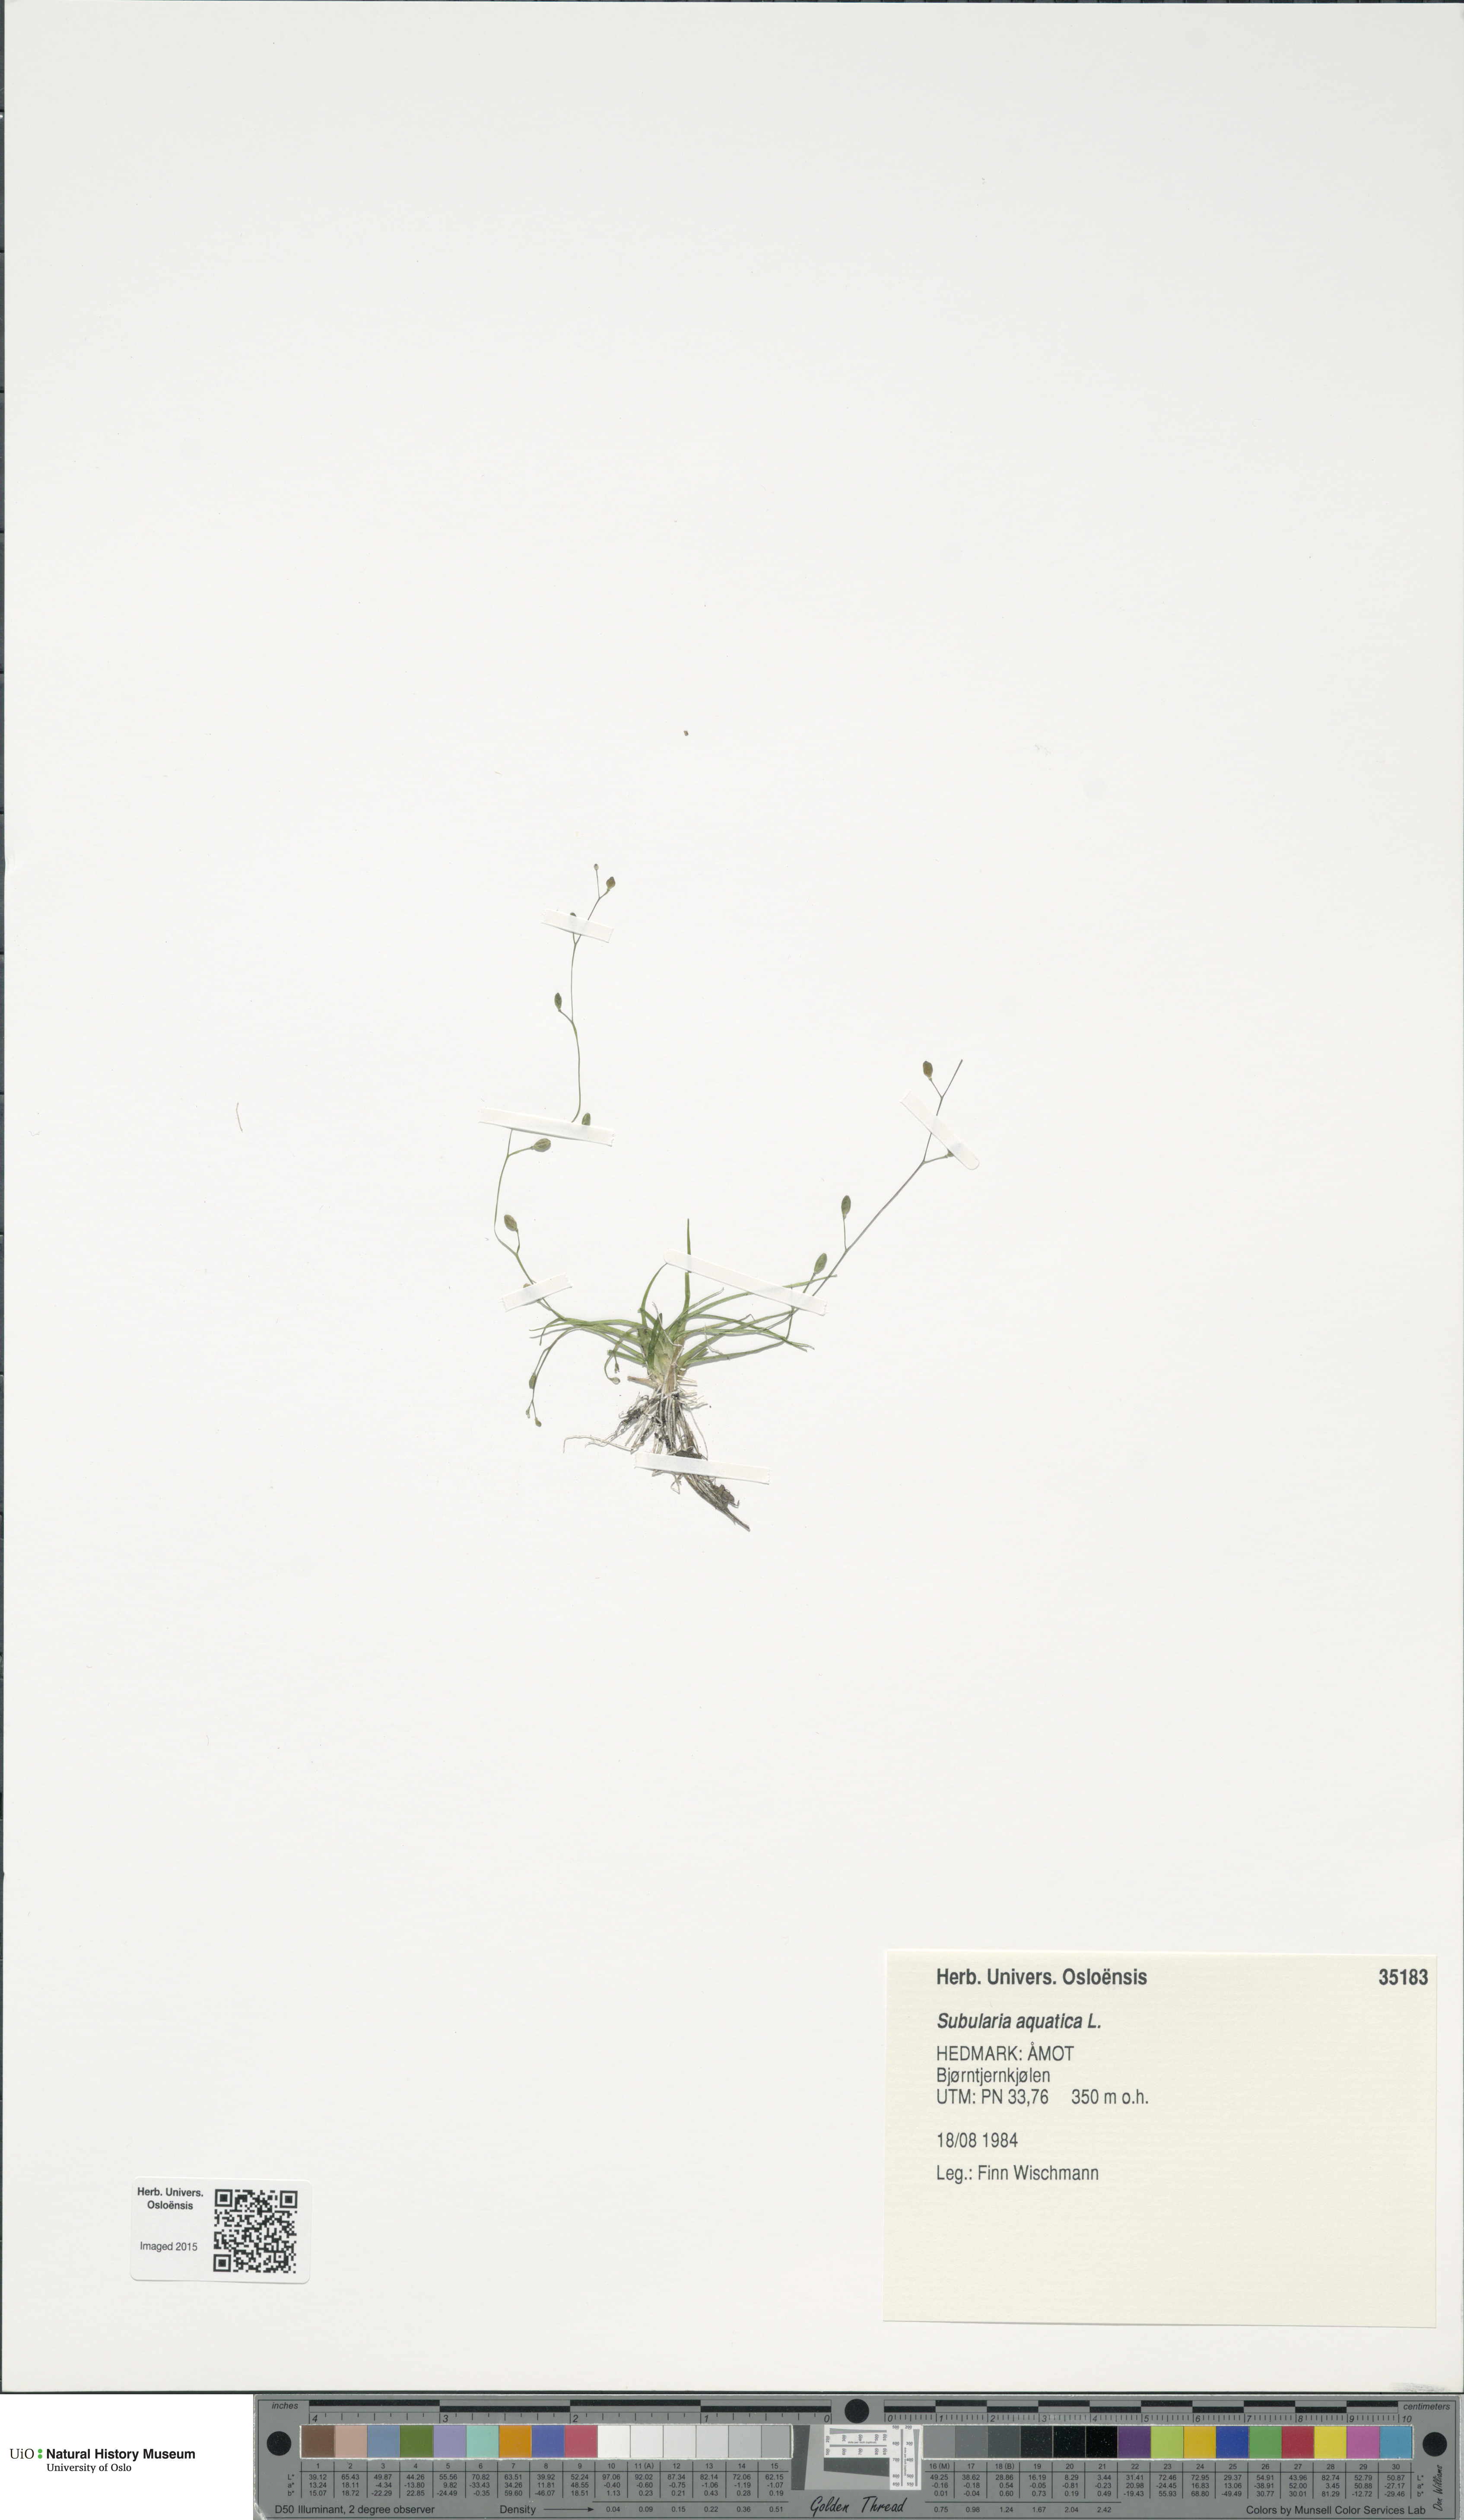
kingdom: Plantae
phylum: Tracheophyta
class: Magnoliopsida
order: Brassicales
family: Brassicaceae
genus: Subularia
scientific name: Subularia aquatica
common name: Awlwort
